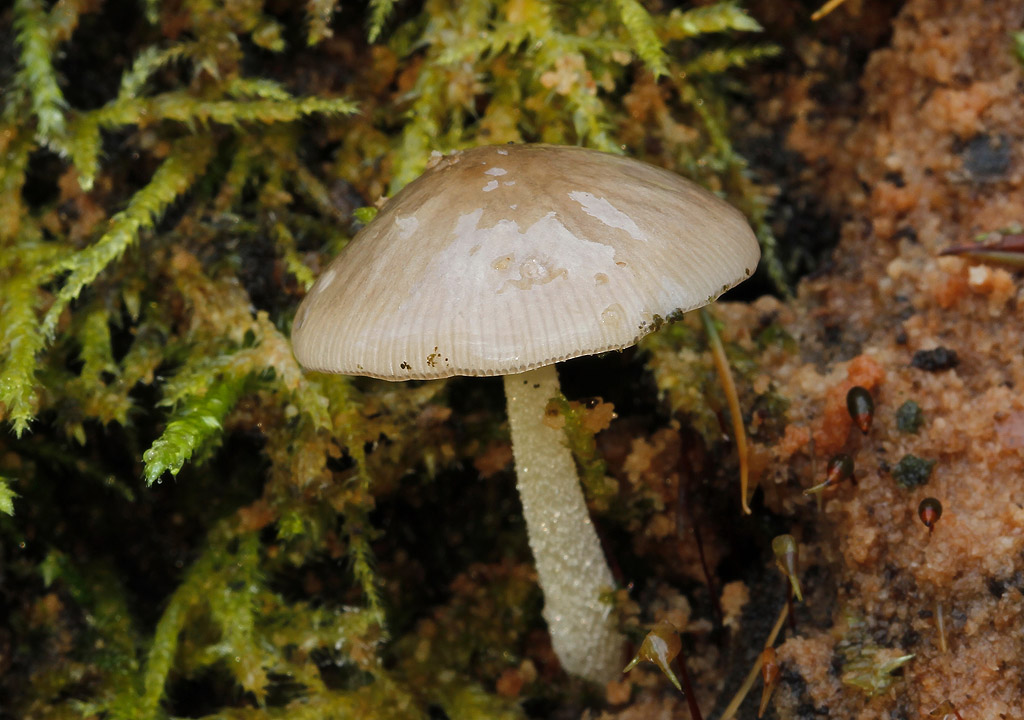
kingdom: Fungi
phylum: Basidiomycota
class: Agaricomycetes
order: Agaricales
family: Bolbitiaceae
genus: Bolbitius
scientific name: Bolbitius reticulatus
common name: Netted fieldcap
